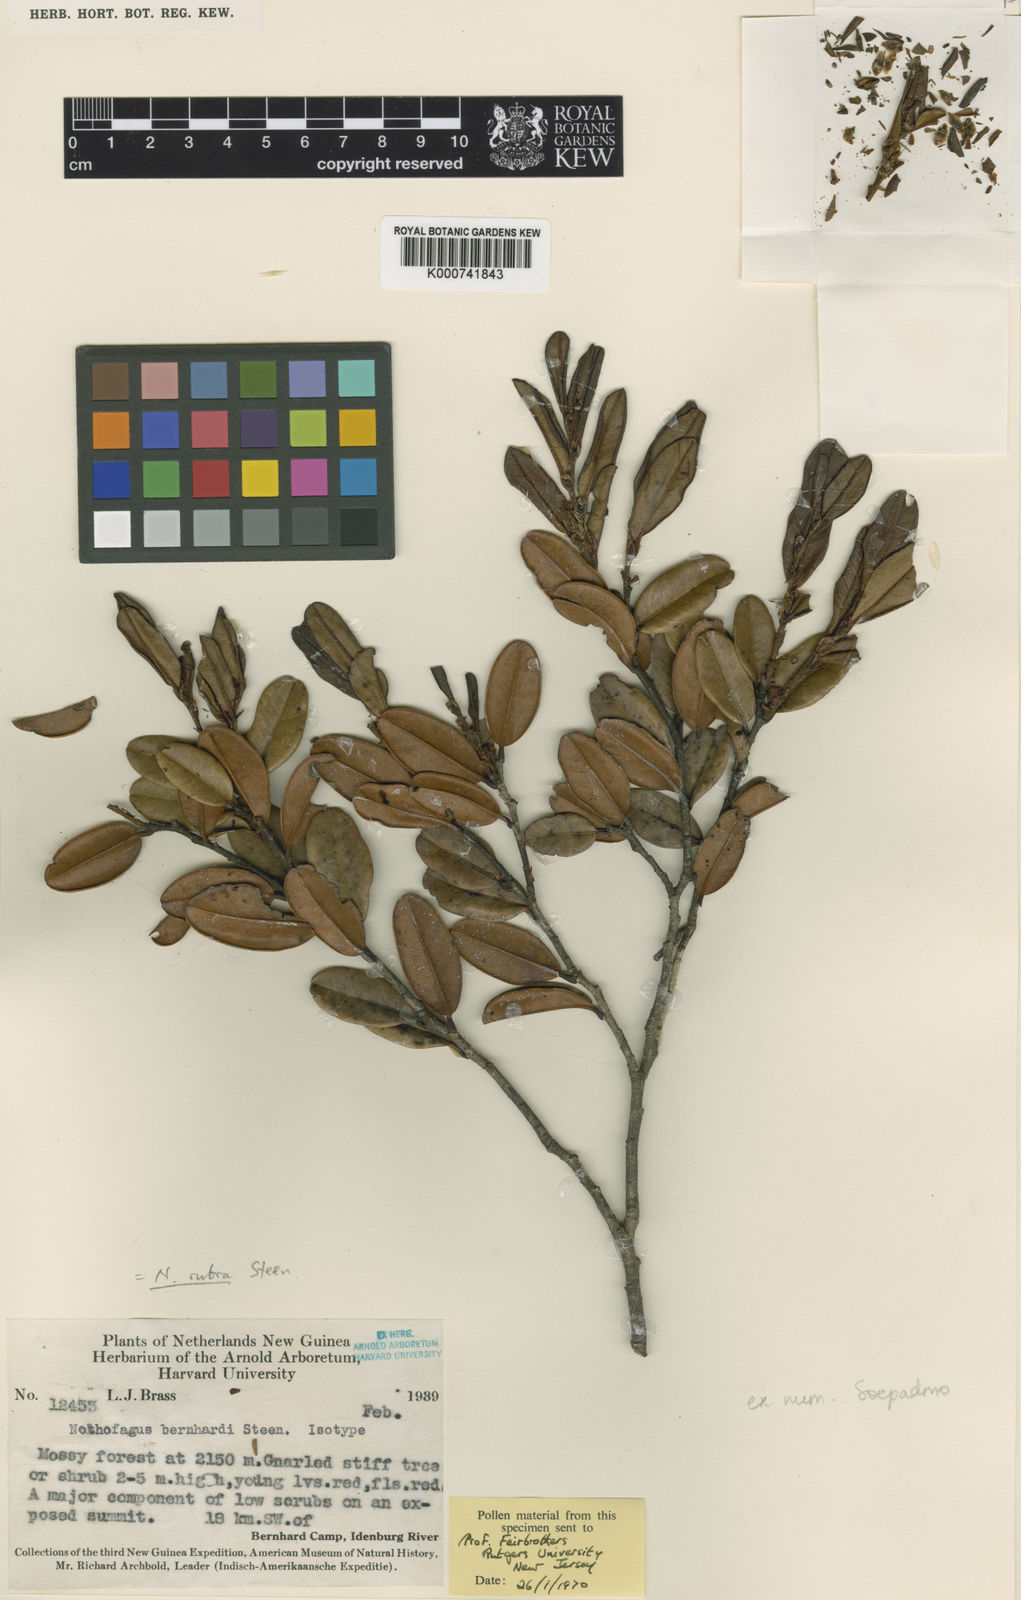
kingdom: Plantae
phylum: Tracheophyta
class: Magnoliopsida
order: Fagales
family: Nothofagaceae
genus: Nothofagus
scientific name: Nothofagus rubra
